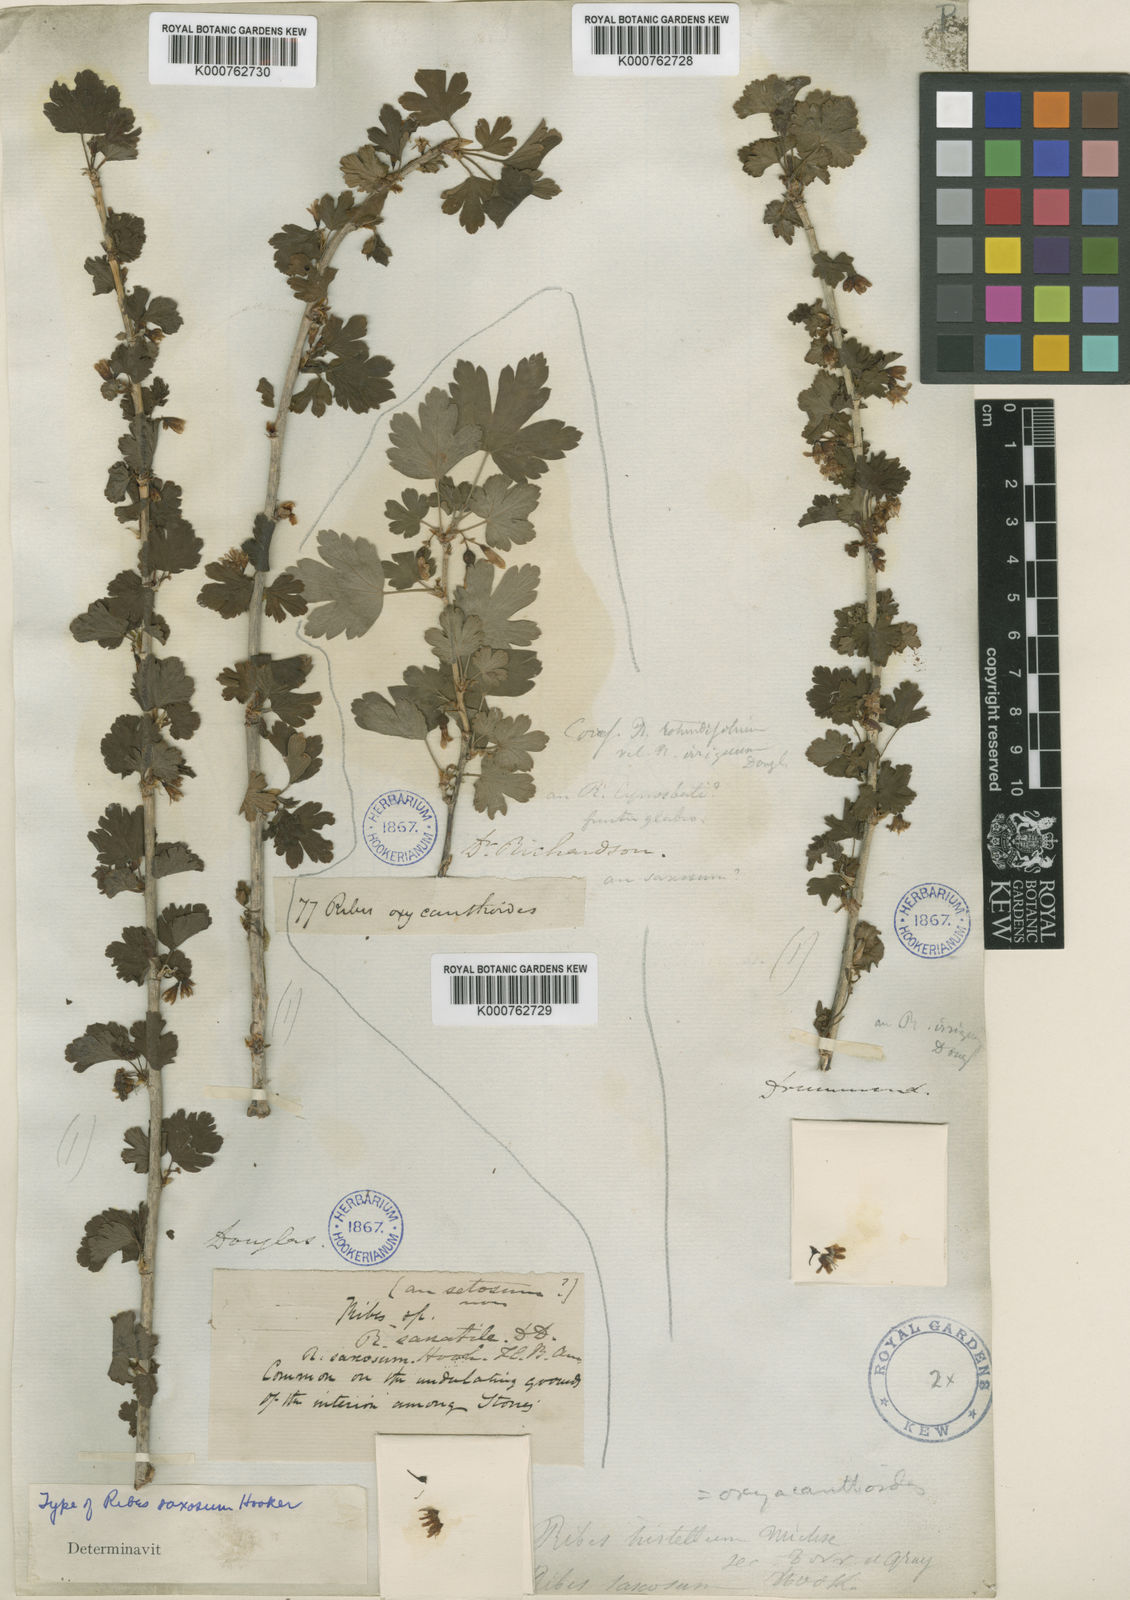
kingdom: Plantae
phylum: Tracheophyta
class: Magnoliopsida
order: Saxifragales
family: Grossulariaceae
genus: Ribes
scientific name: Ribes hirtellum
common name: Hairy gooseberry
